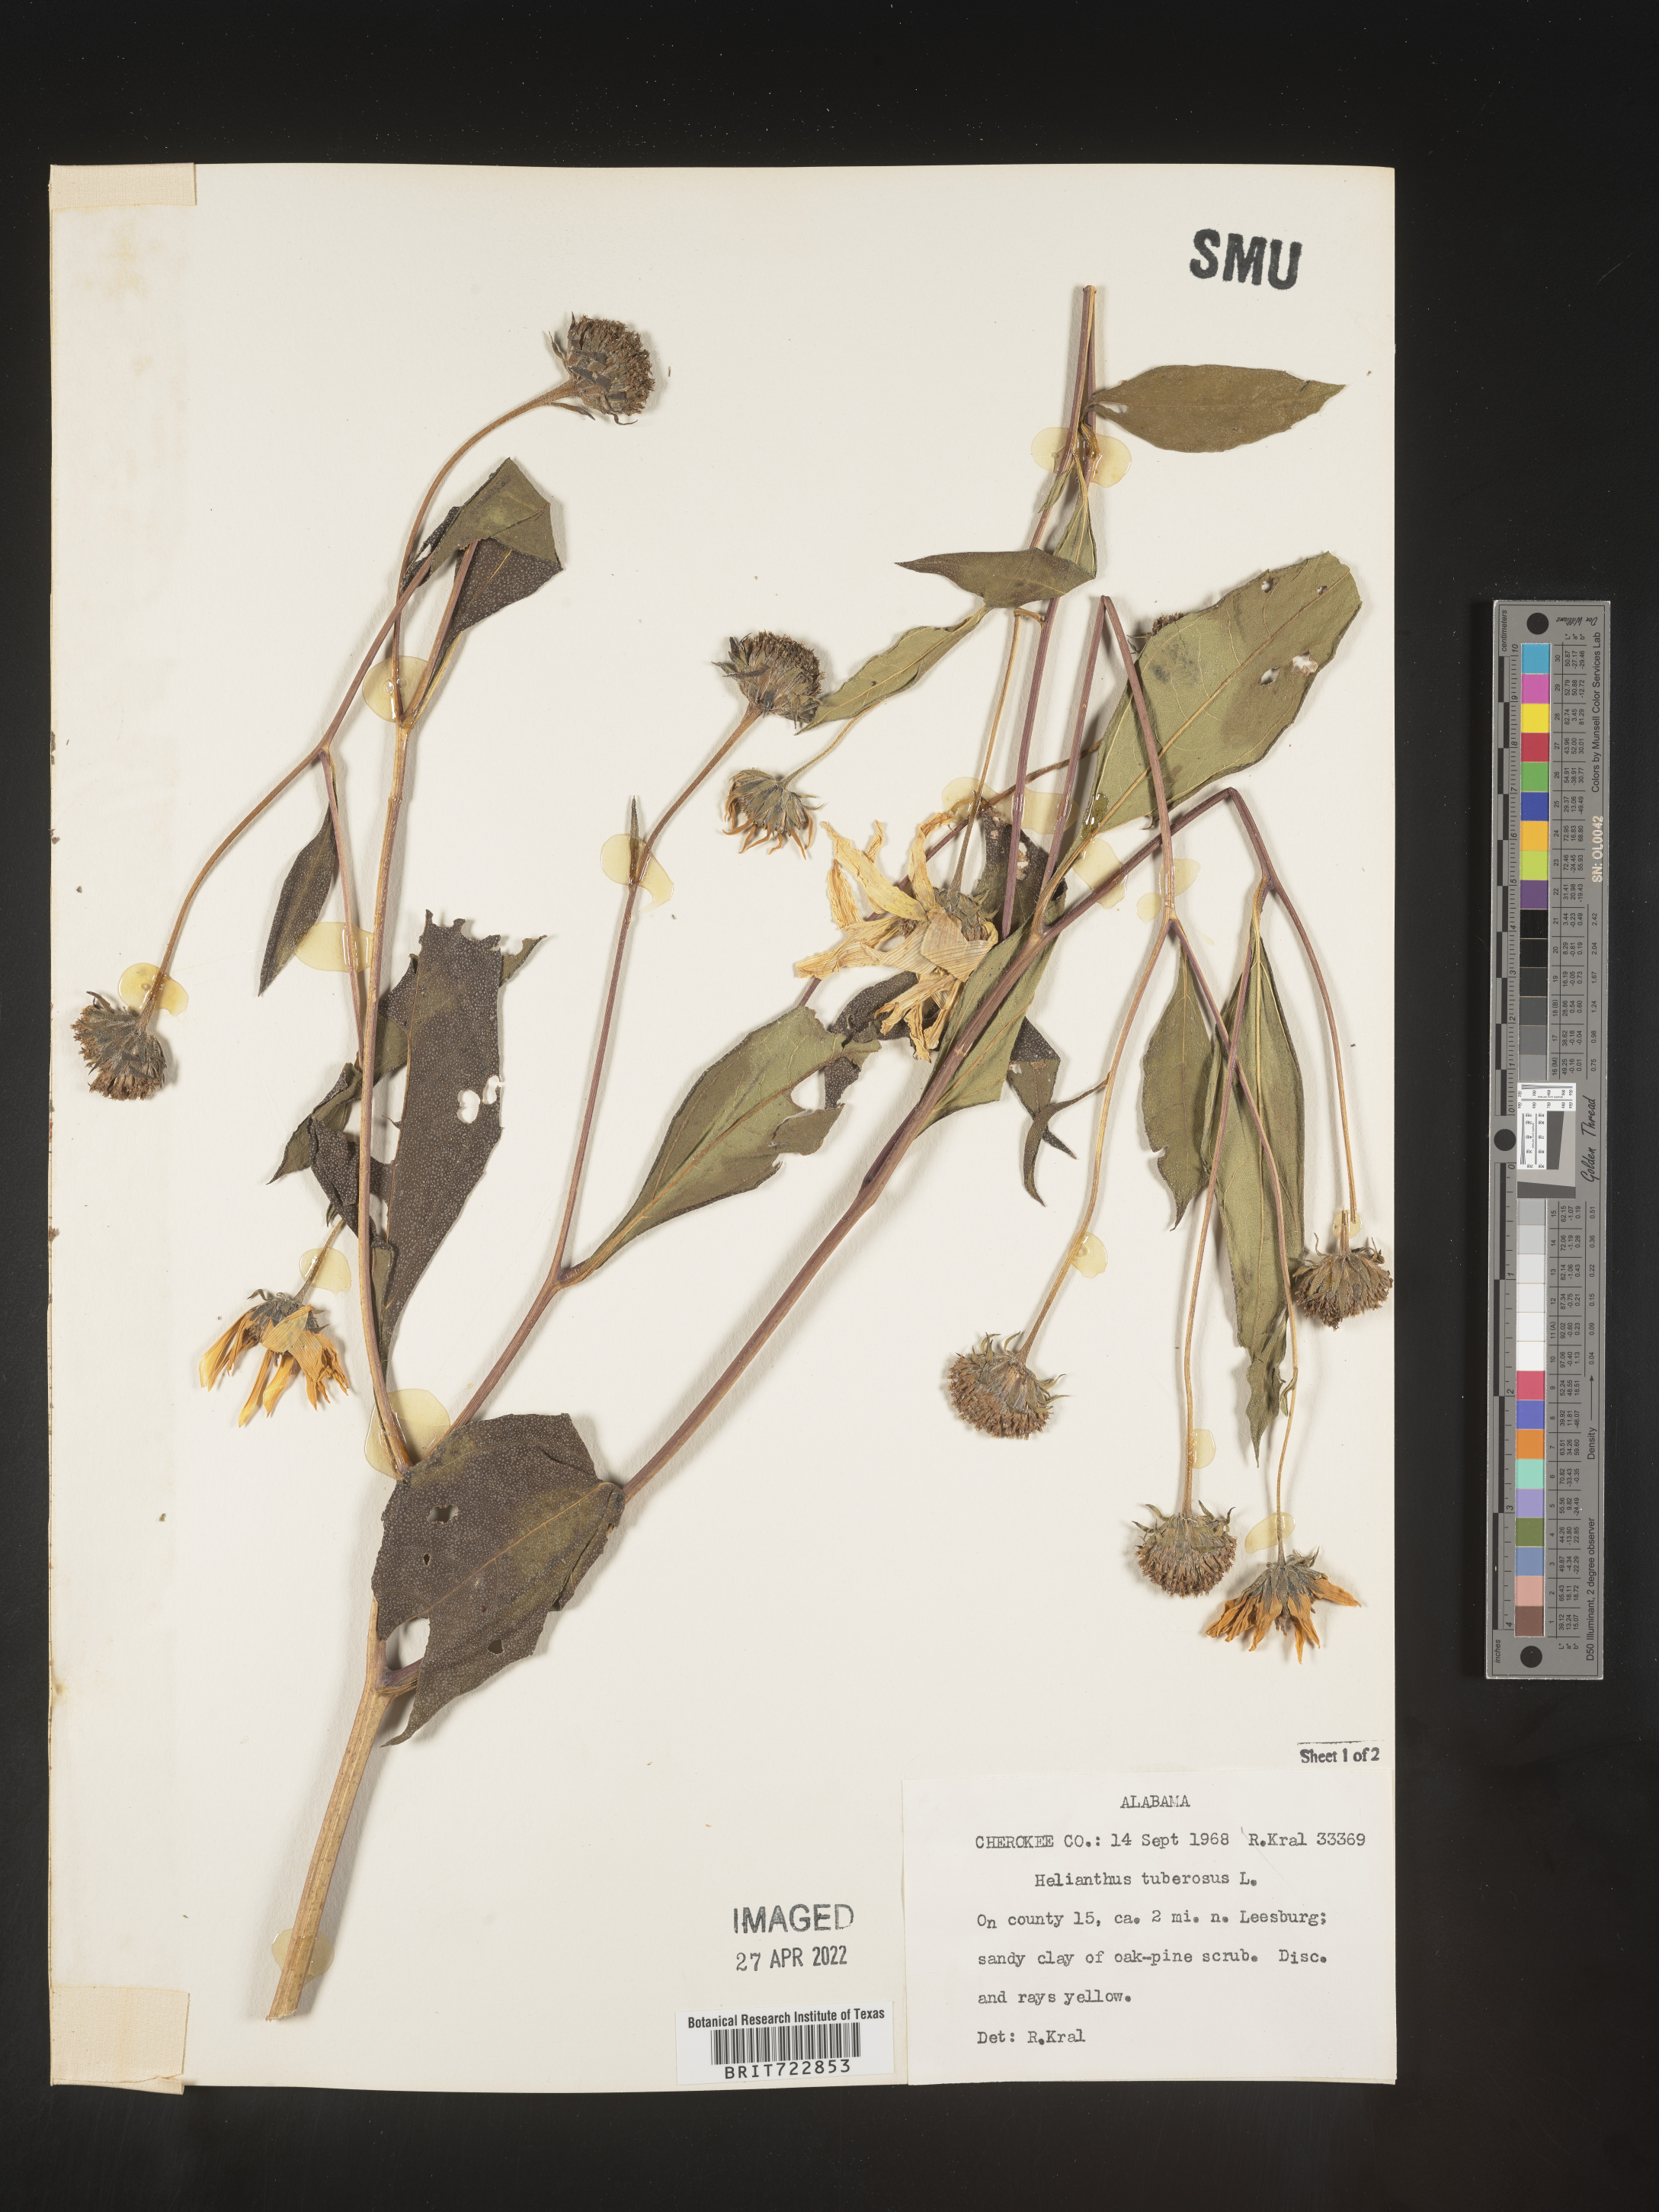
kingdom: Plantae
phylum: Tracheophyta
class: Magnoliopsida
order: Asterales
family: Asteraceae
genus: Helianthus
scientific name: Helianthus tuberosus
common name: Jerusalem artichoke
